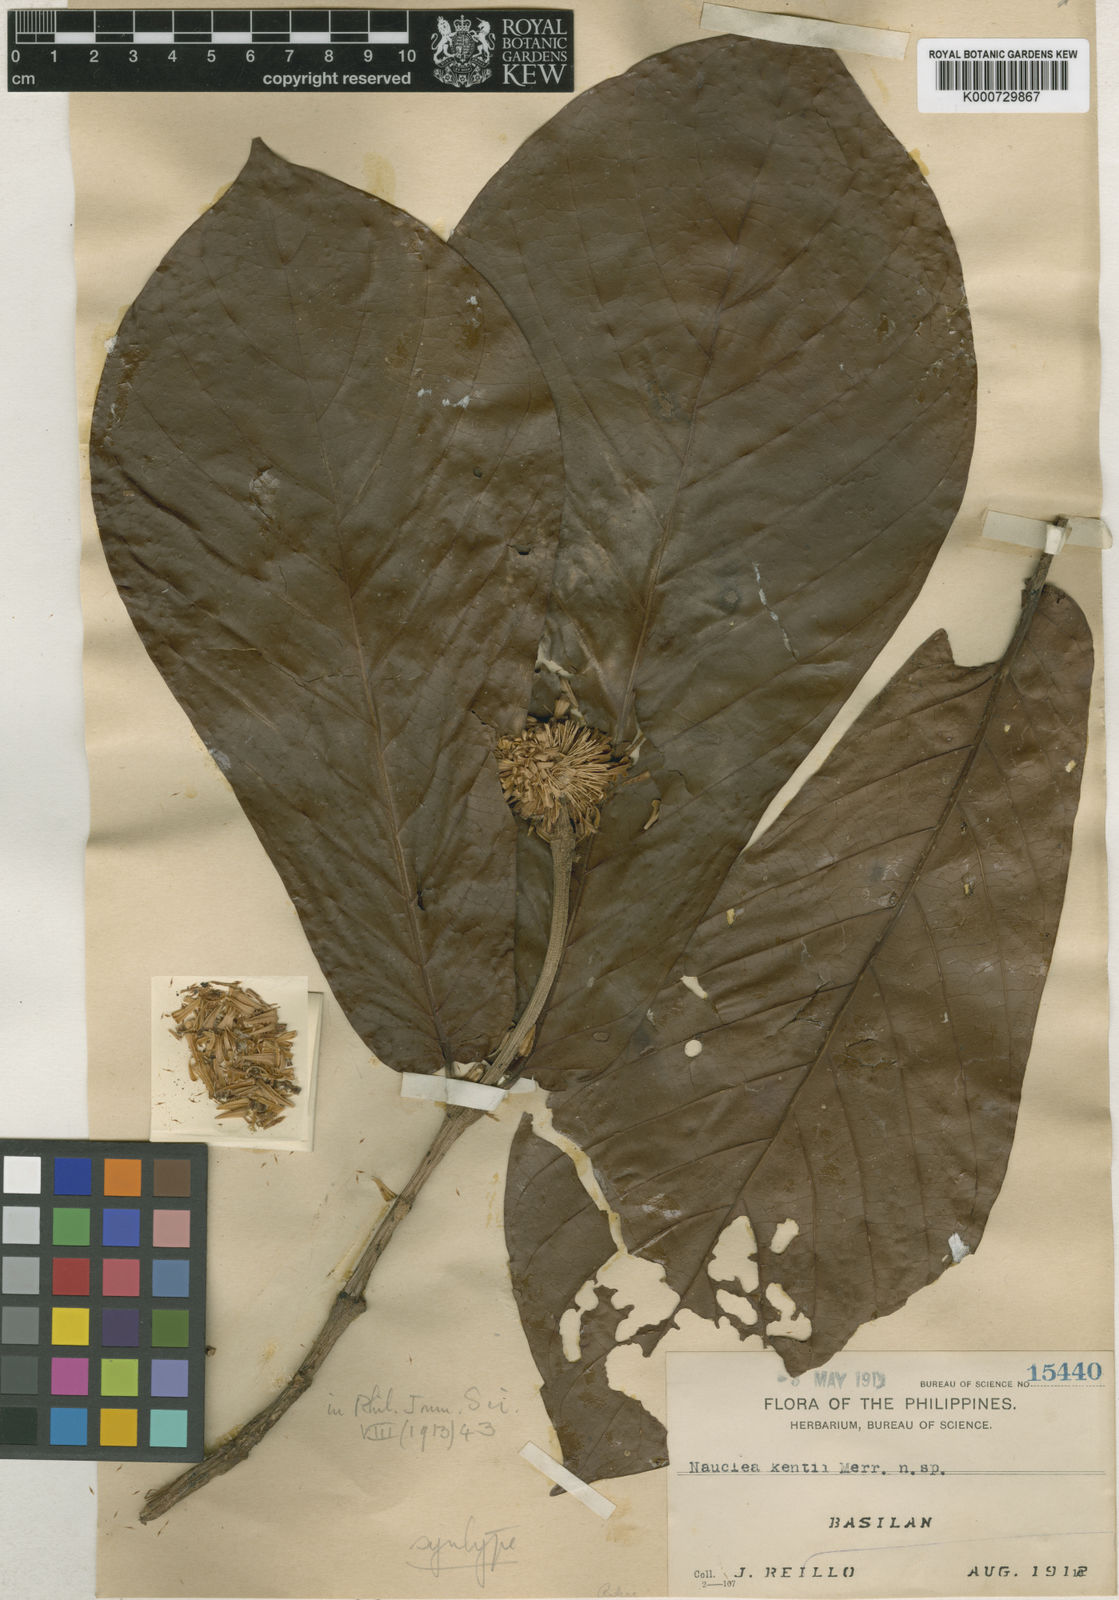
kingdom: Plantae
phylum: Tracheophyta
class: Magnoliopsida
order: Gentianales
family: Rubiaceae
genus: Neonauclea
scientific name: Neonauclea kentii
